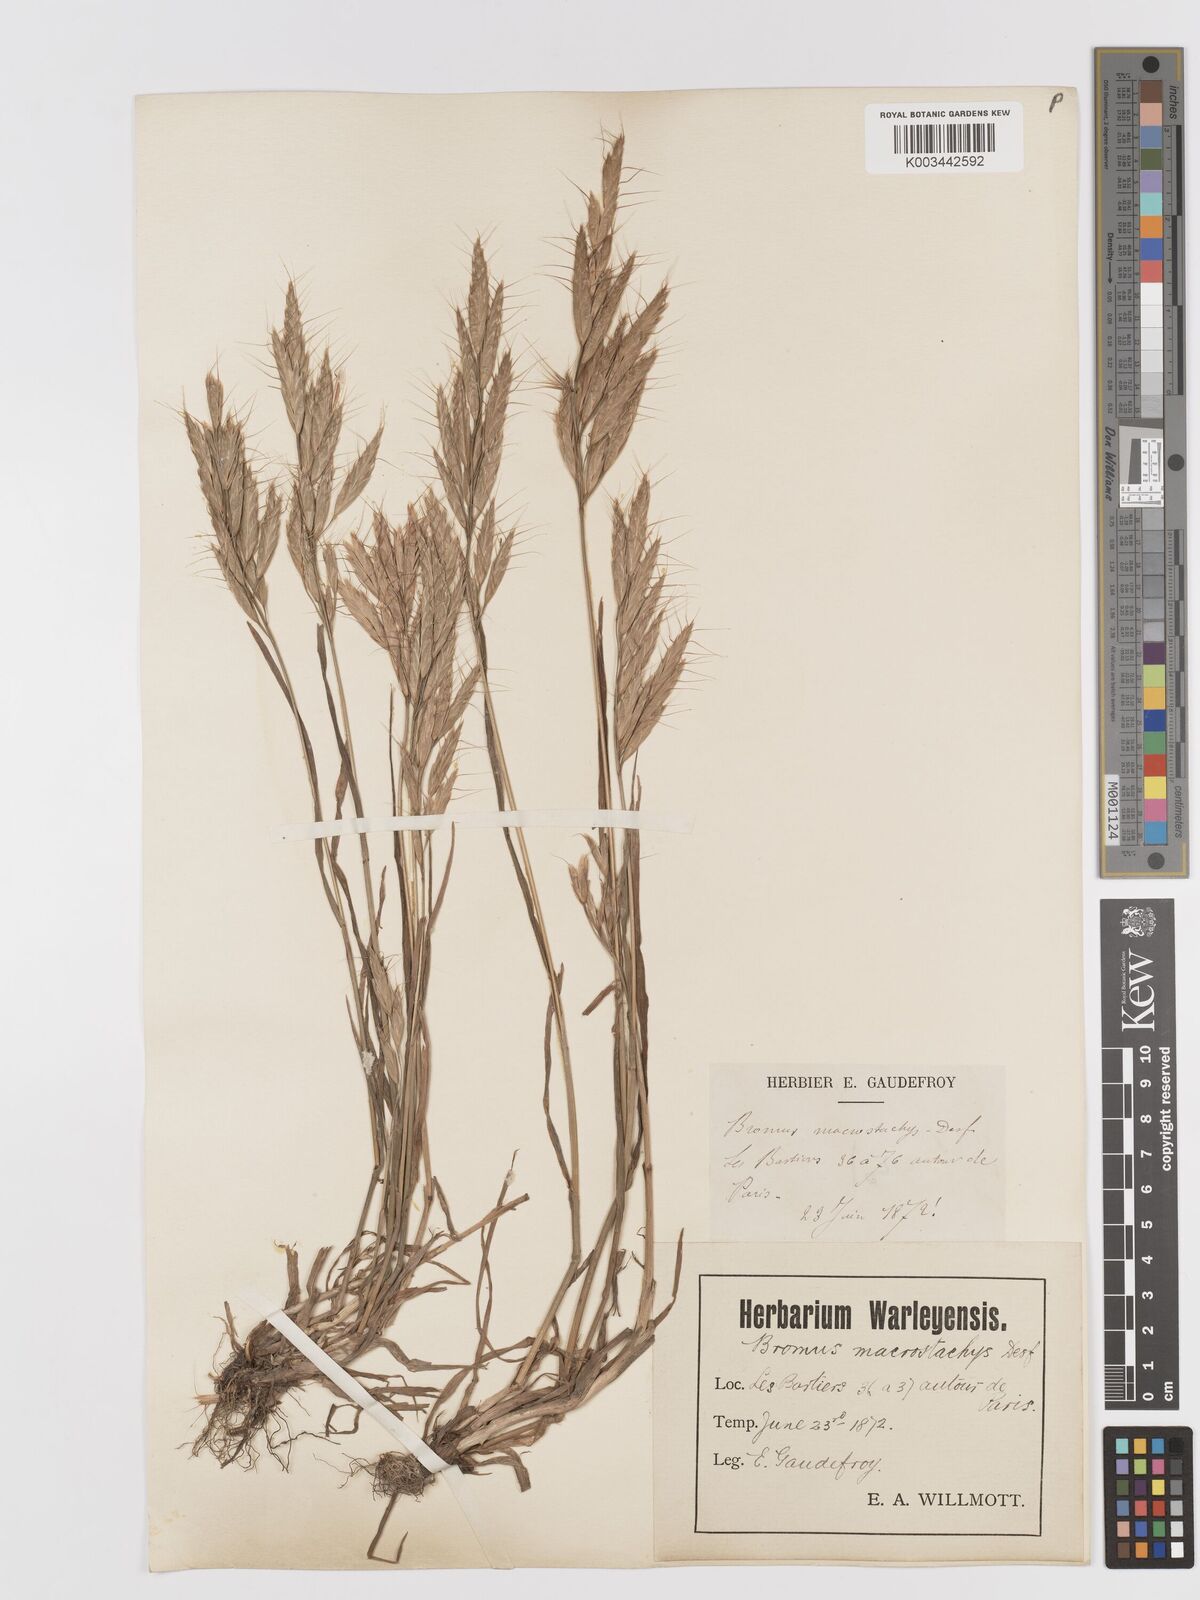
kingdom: Plantae
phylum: Tracheophyta
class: Liliopsida
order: Poales
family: Poaceae
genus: Bromus
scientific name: Bromus lanceolatus
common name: Mediterranean brome
